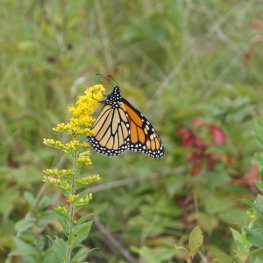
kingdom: Animalia
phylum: Arthropoda
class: Insecta
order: Lepidoptera
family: Nymphalidae
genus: Danaus
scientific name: Danaus plexippus
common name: Monarch
